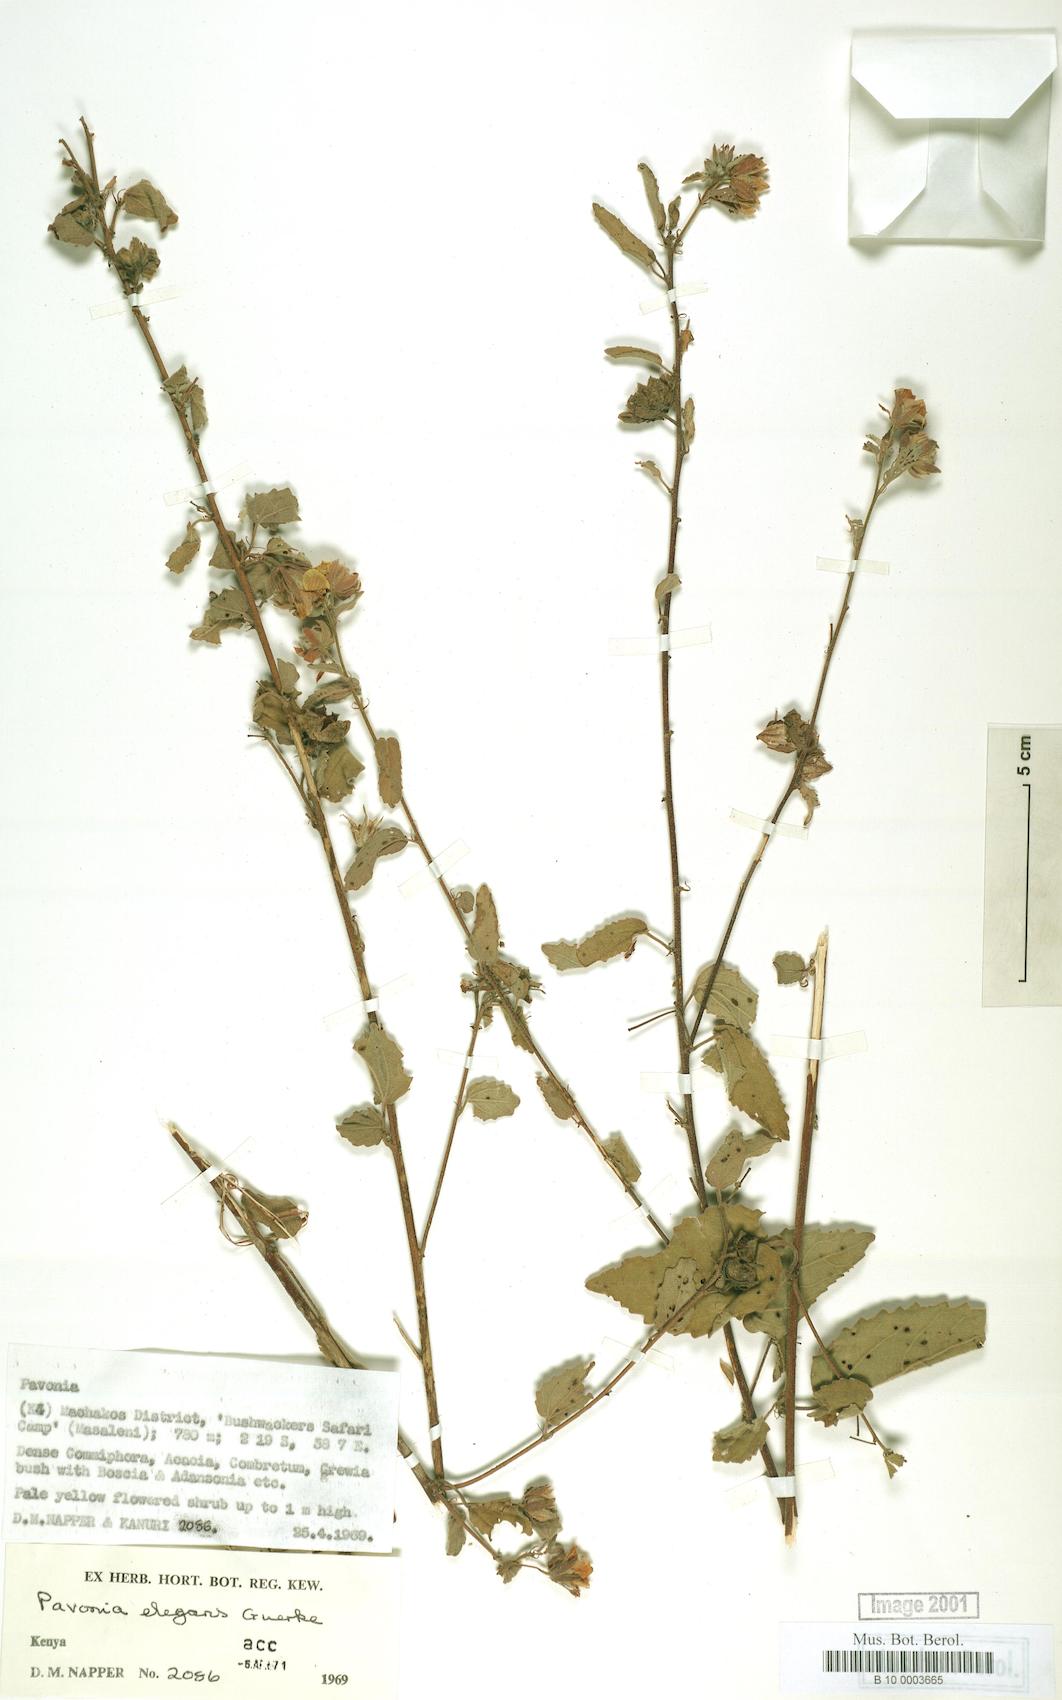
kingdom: Plantae
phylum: Tracheophyta
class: Magnoliopsida
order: Malvales
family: Malvaceae
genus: Pavonia
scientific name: Pavonia elegans
